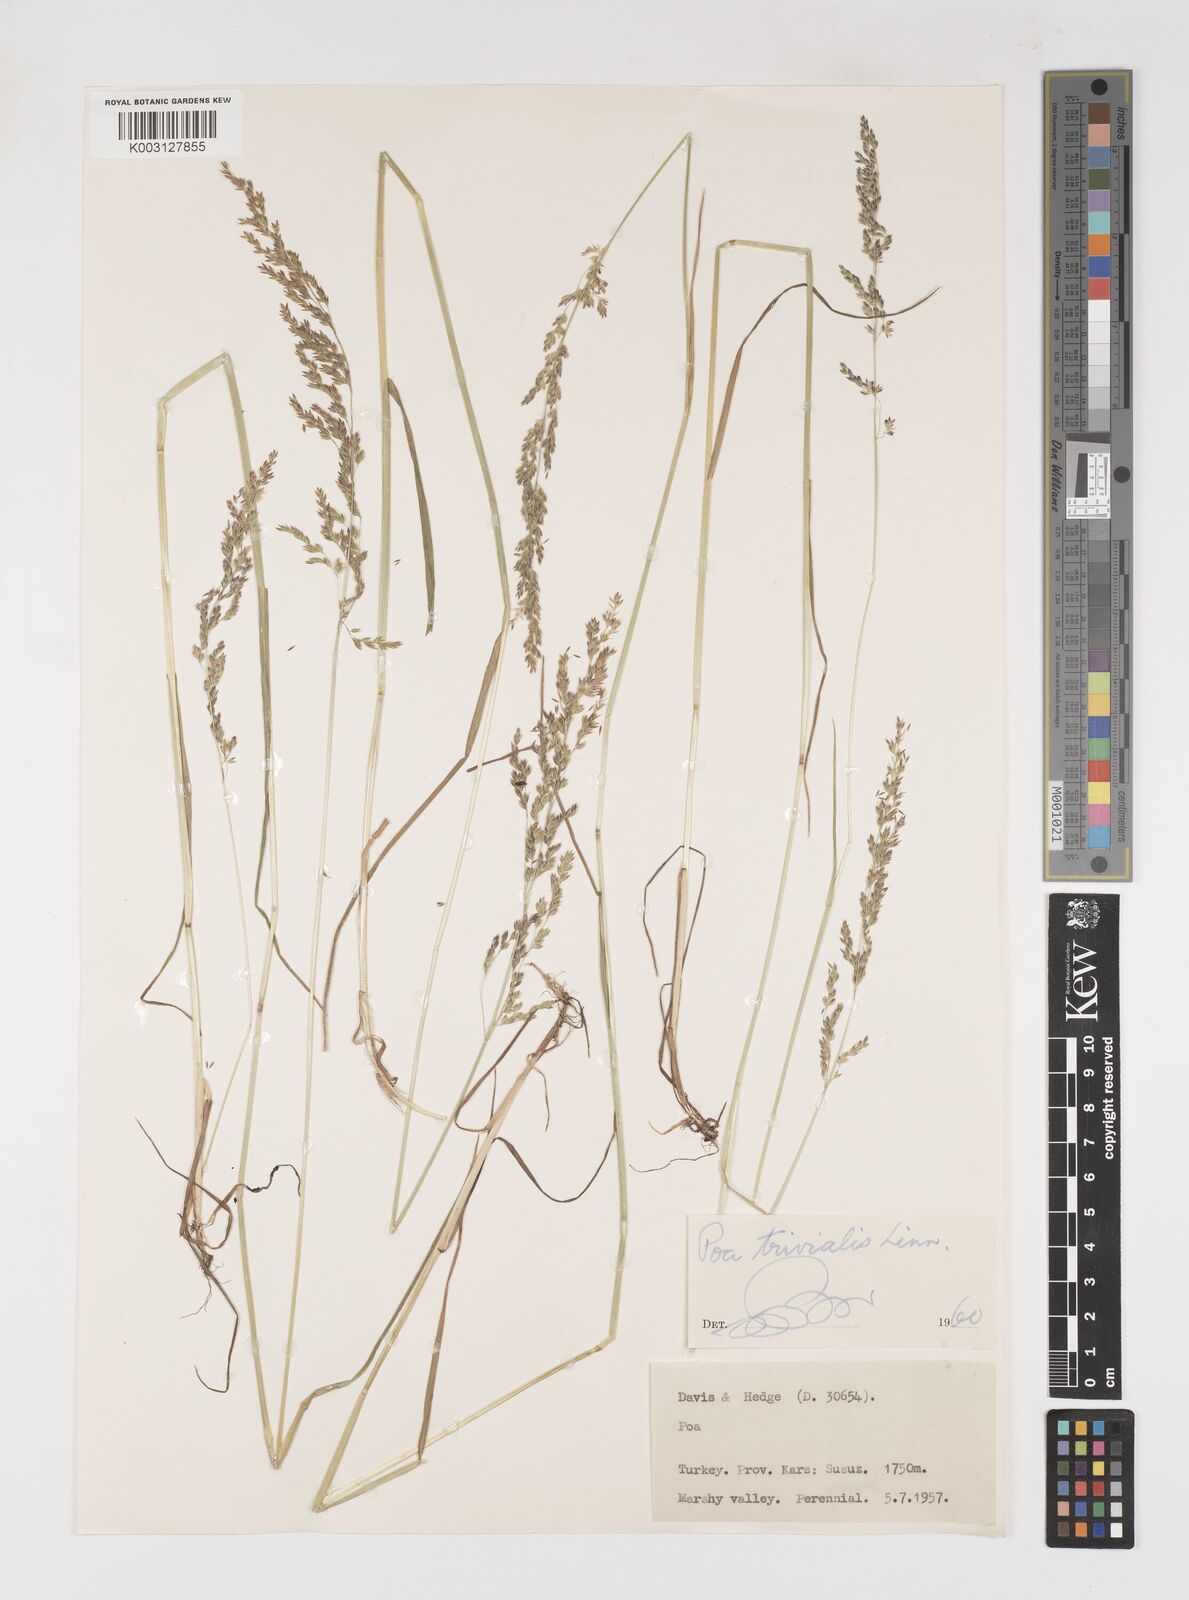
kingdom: Plantae
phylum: Tracheophyta
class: Liliopsida
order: Poales
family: Poaceae
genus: Poa
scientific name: Poa trivialis
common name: Rough bluegrass
